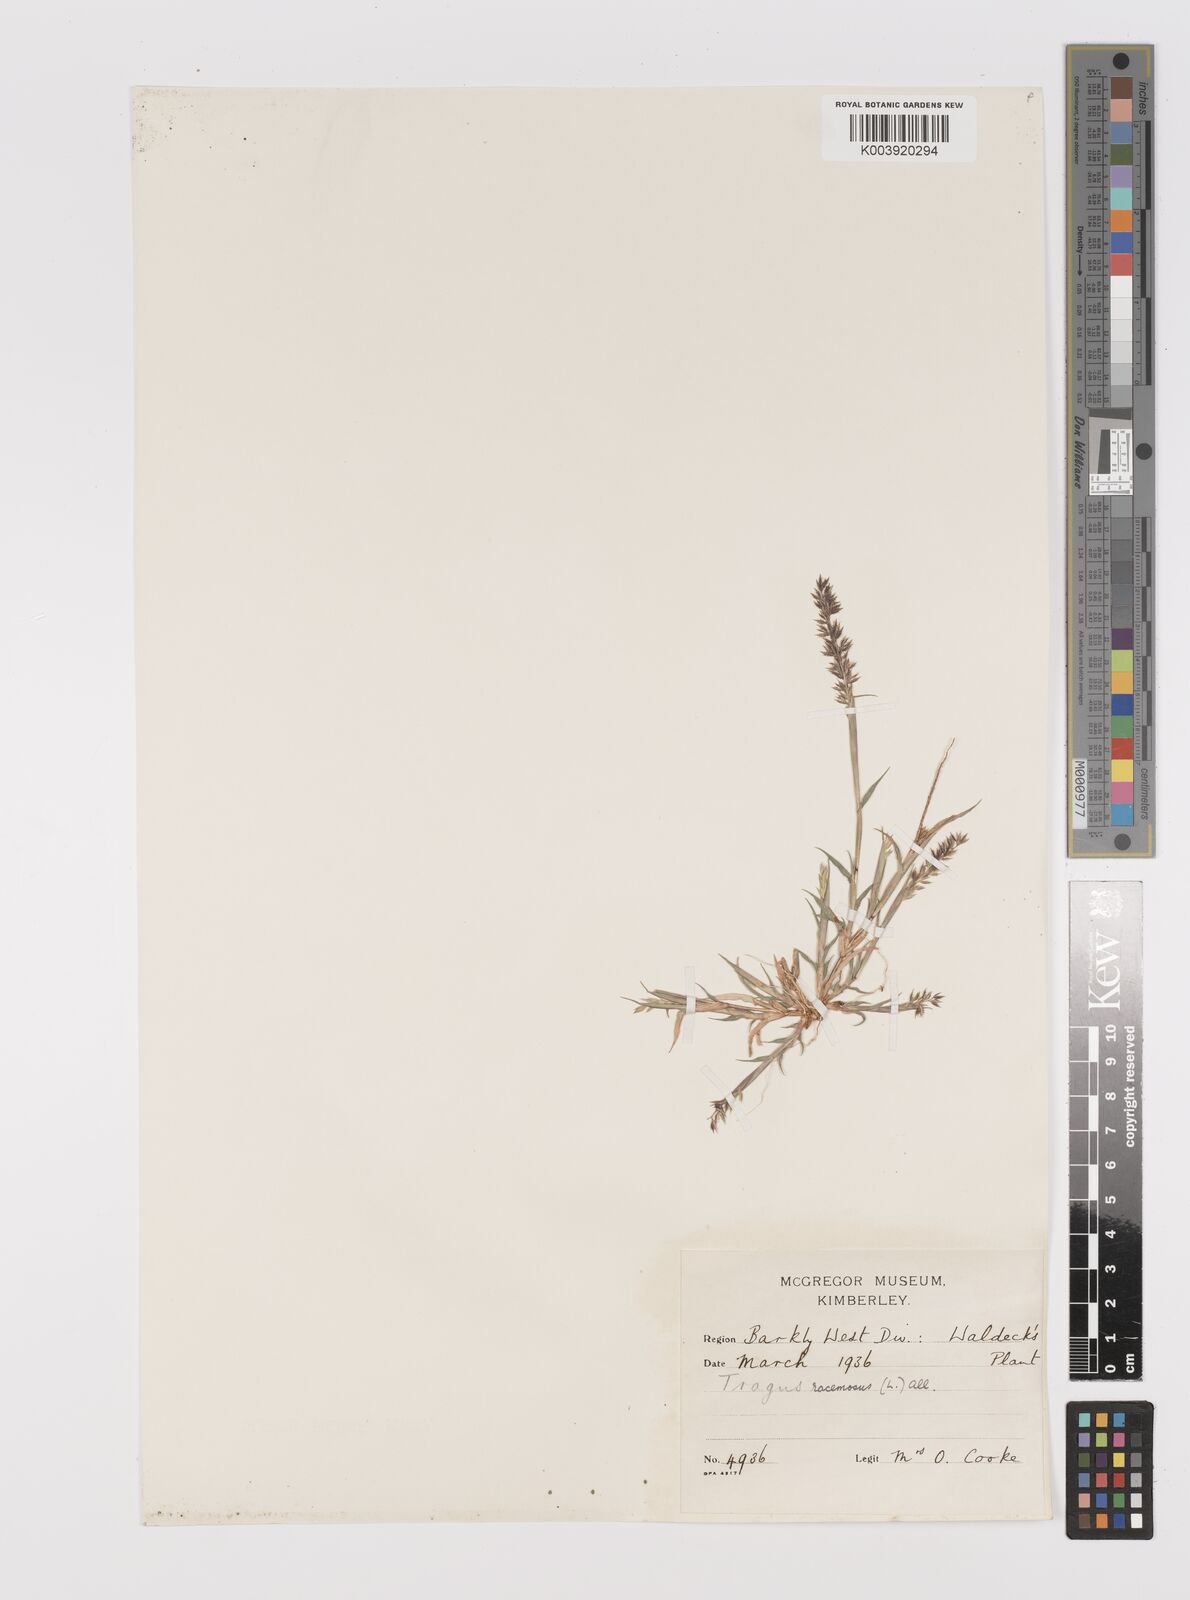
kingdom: Plantae
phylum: Tracheophyta
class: Liliopsida
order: Poales
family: Poaceae
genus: Tragus
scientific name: Tragus racemosus
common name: European bur-grass
